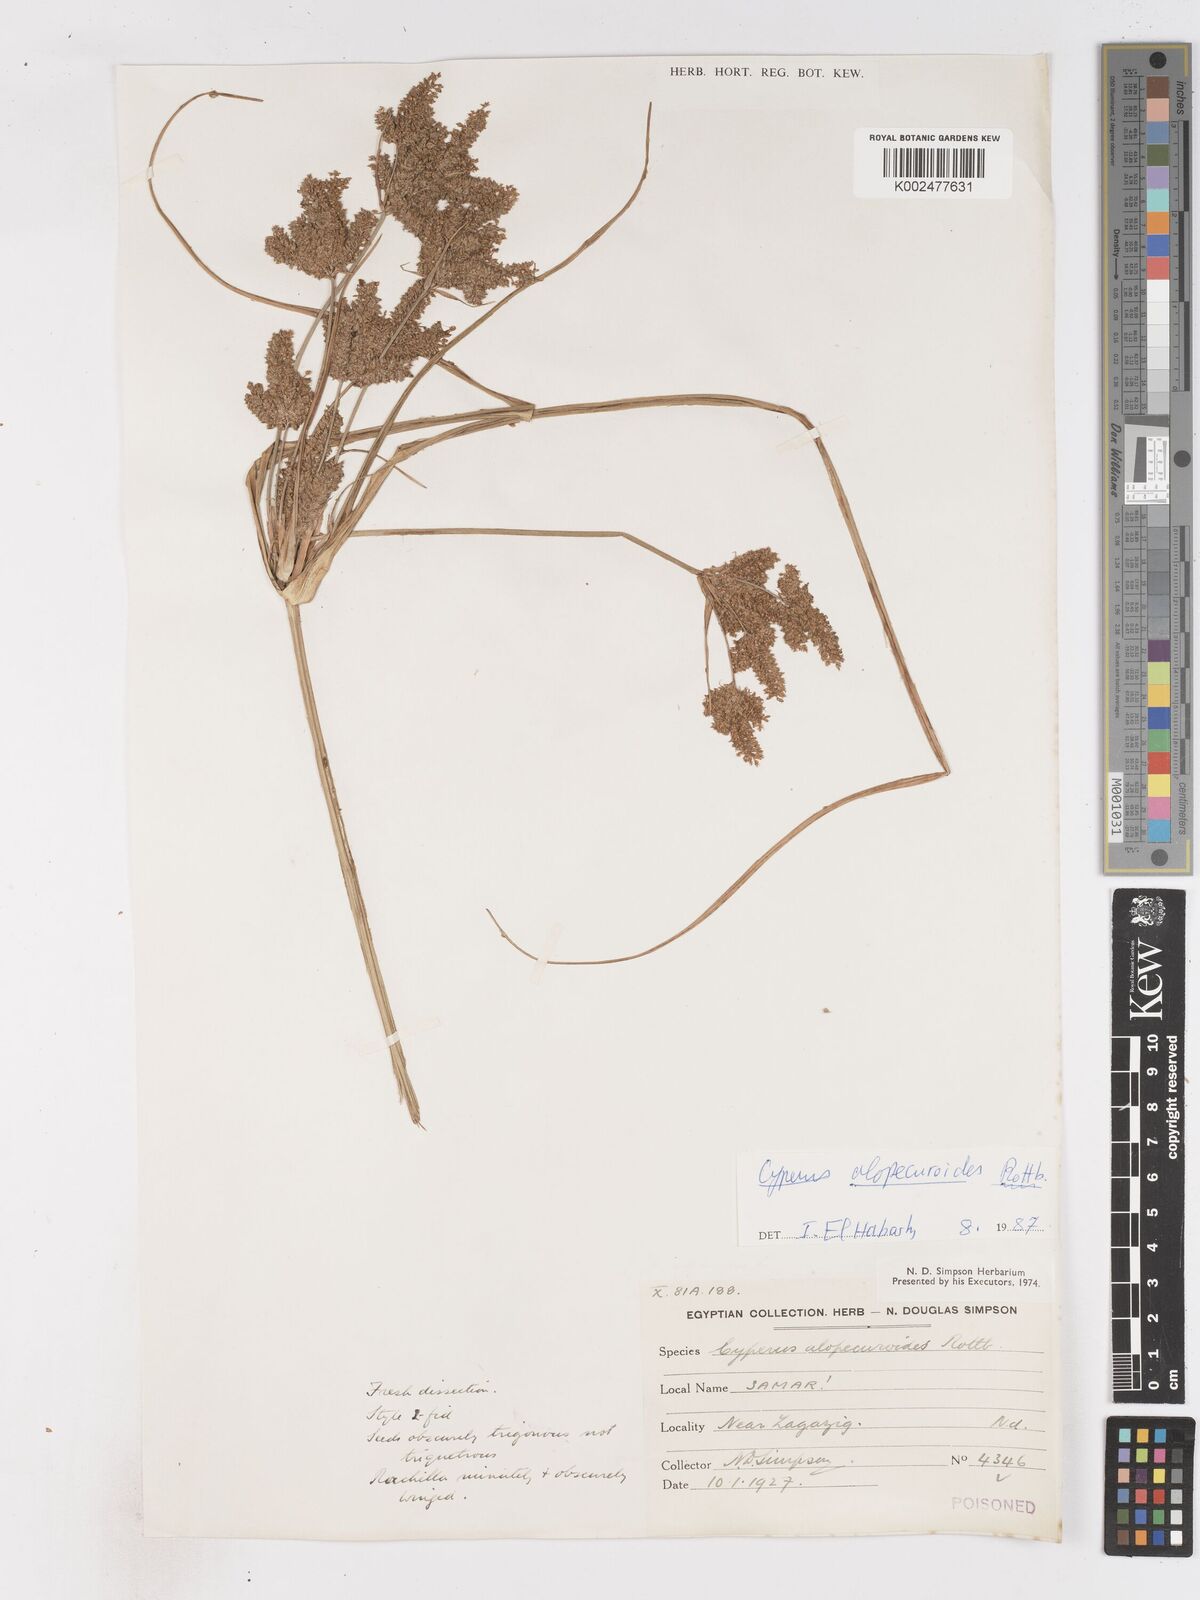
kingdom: Plantae
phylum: Tracheophyta
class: Liliopsida
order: Poales
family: Cyperaceae
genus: Cyperus
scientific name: Cyperus alopecuroides
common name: Foxtail flatsedge
